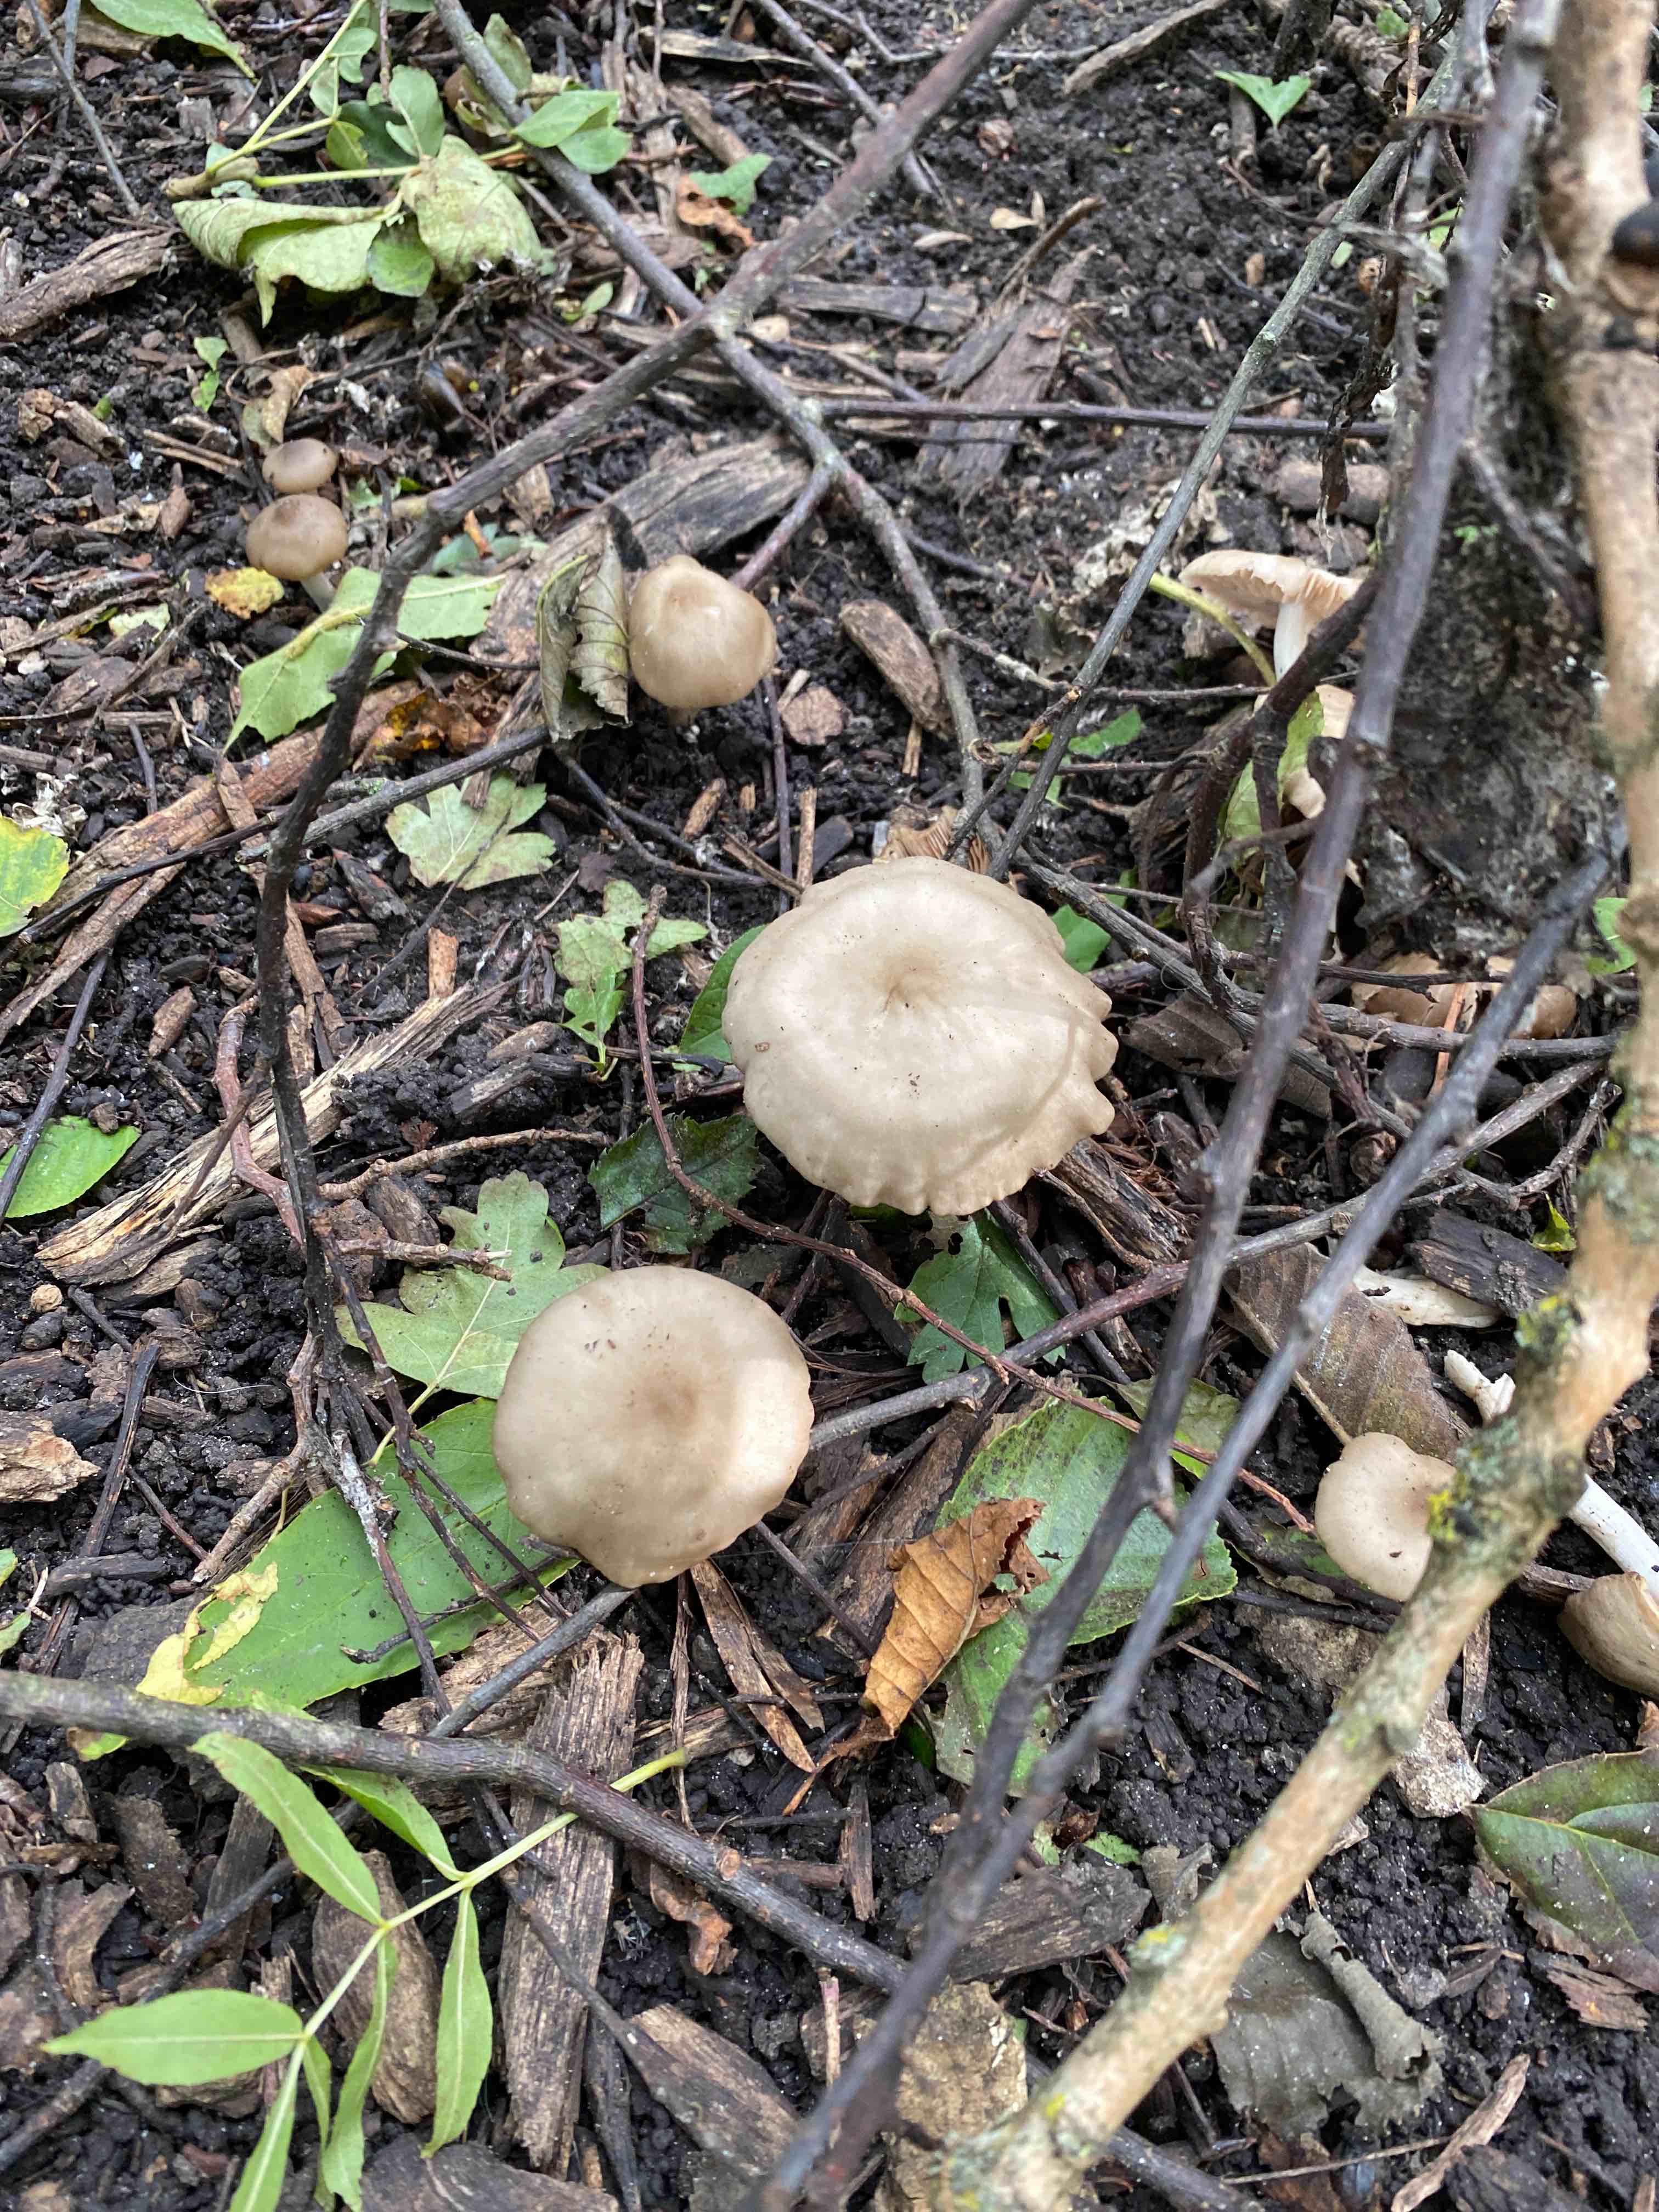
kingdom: Fungi
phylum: Basidiomycota
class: Agaricomycetes
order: Agaricales
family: Entolomataceae
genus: Entoloma
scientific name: Entoloma
